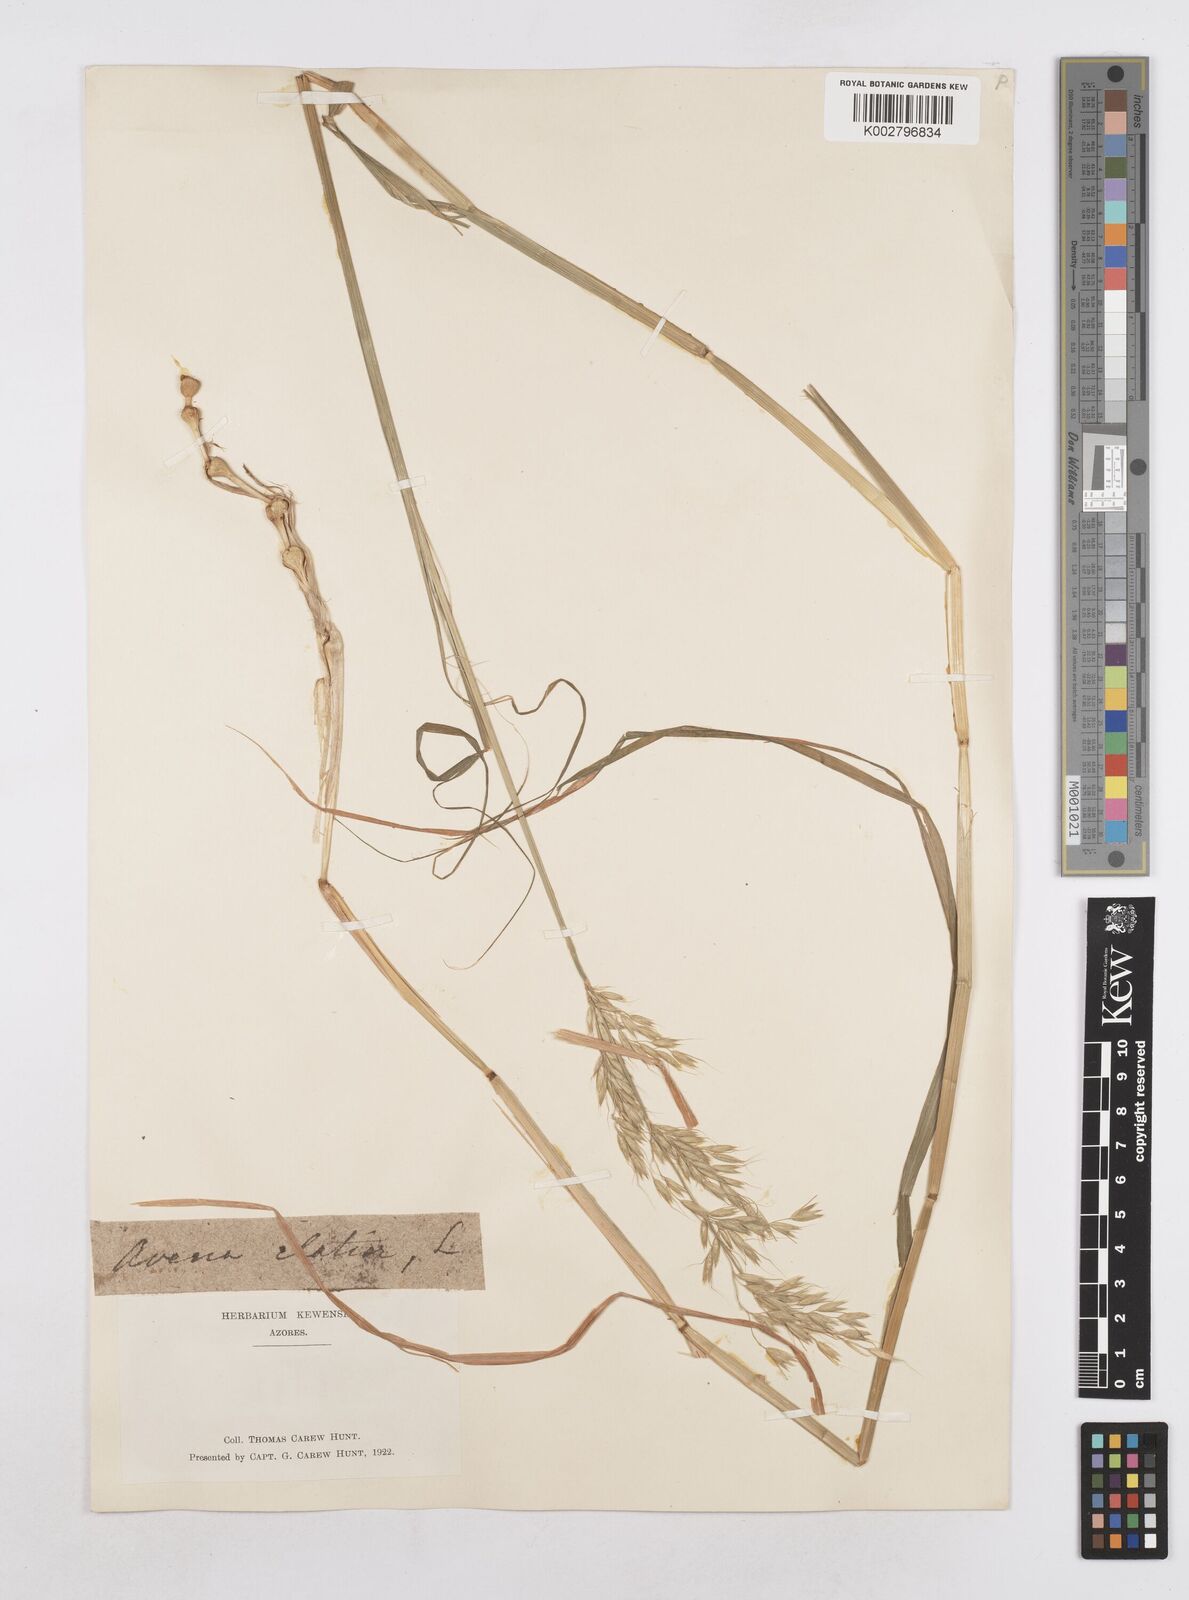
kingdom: Plantae
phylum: Tracheophyta
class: Liliopsida
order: Poales
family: Poaceae
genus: Arrhenatherum
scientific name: Arrhenatherum elatius
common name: Tall oatgrass
